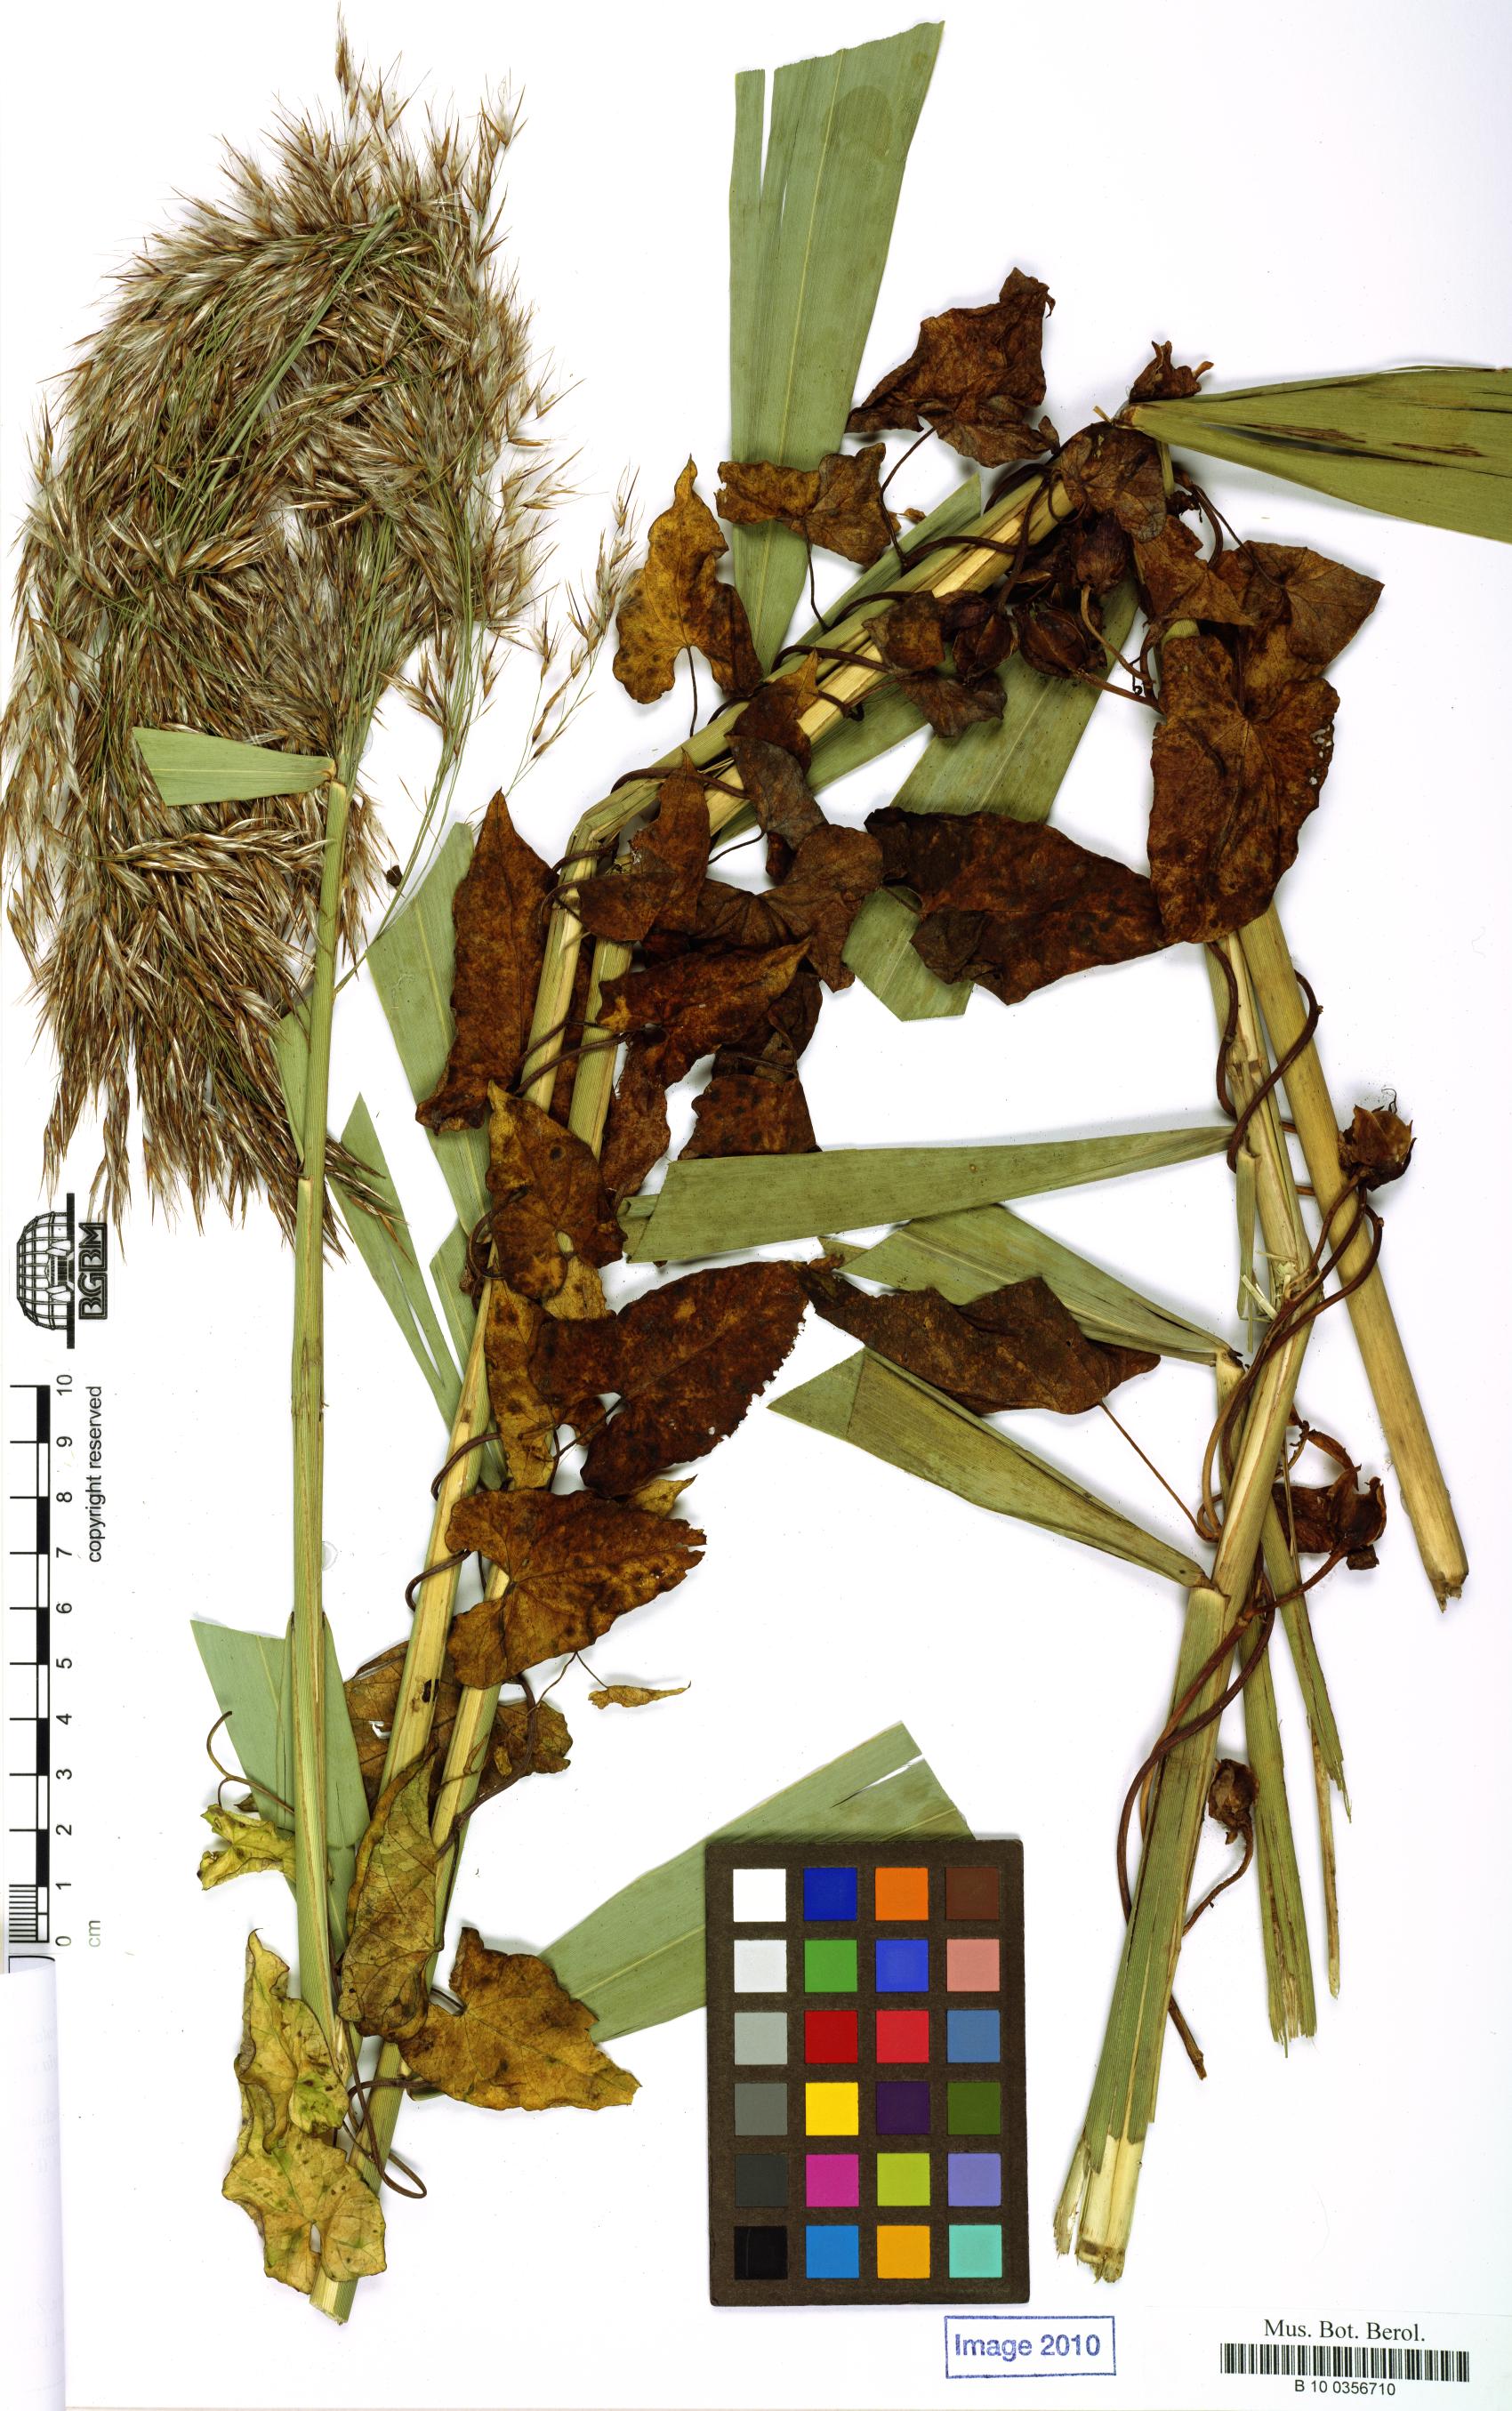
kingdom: Plantae
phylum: Tracheophyta
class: Magnoliopsida
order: Solanales
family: Convolvulaceae
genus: Calystegia
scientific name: Calystegia sepium
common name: Hedge bindweed
